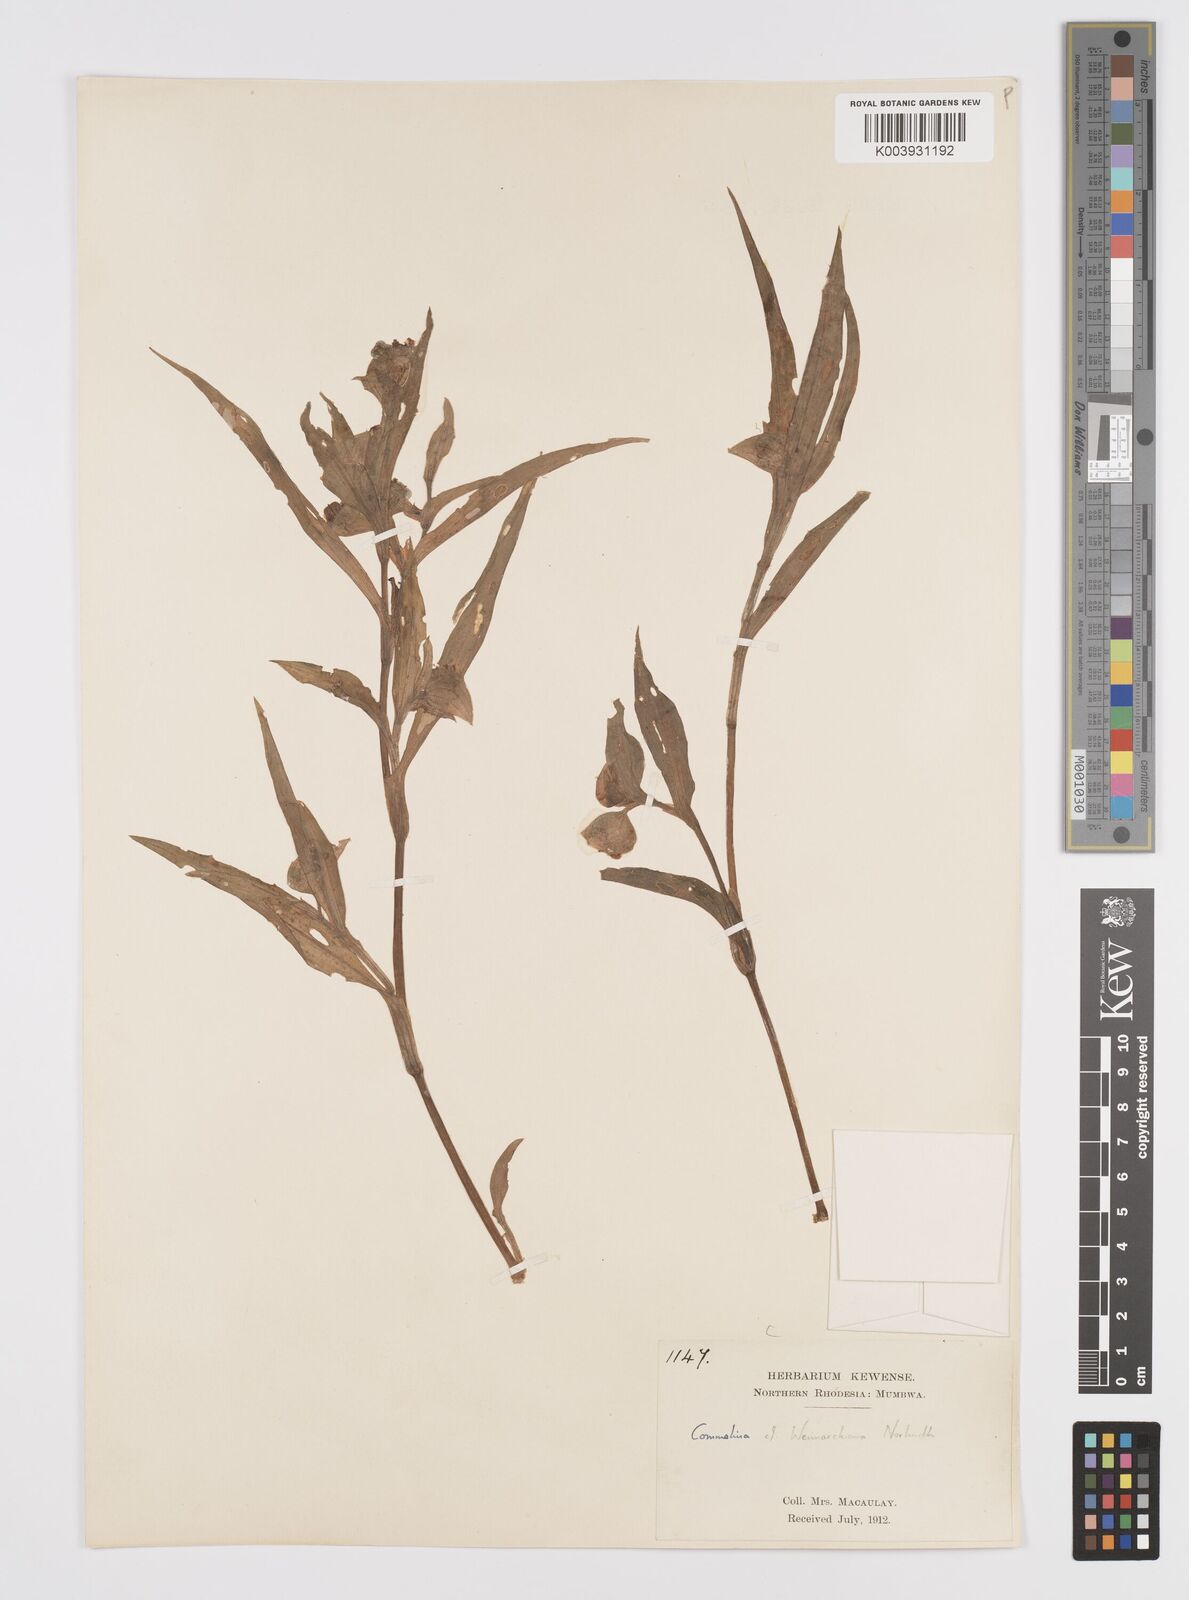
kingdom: Plantae
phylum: Tracheophyta
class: Liliopsida
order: Commelinales
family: Commelinaceae
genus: Commelina
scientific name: Commelina eckloniana
